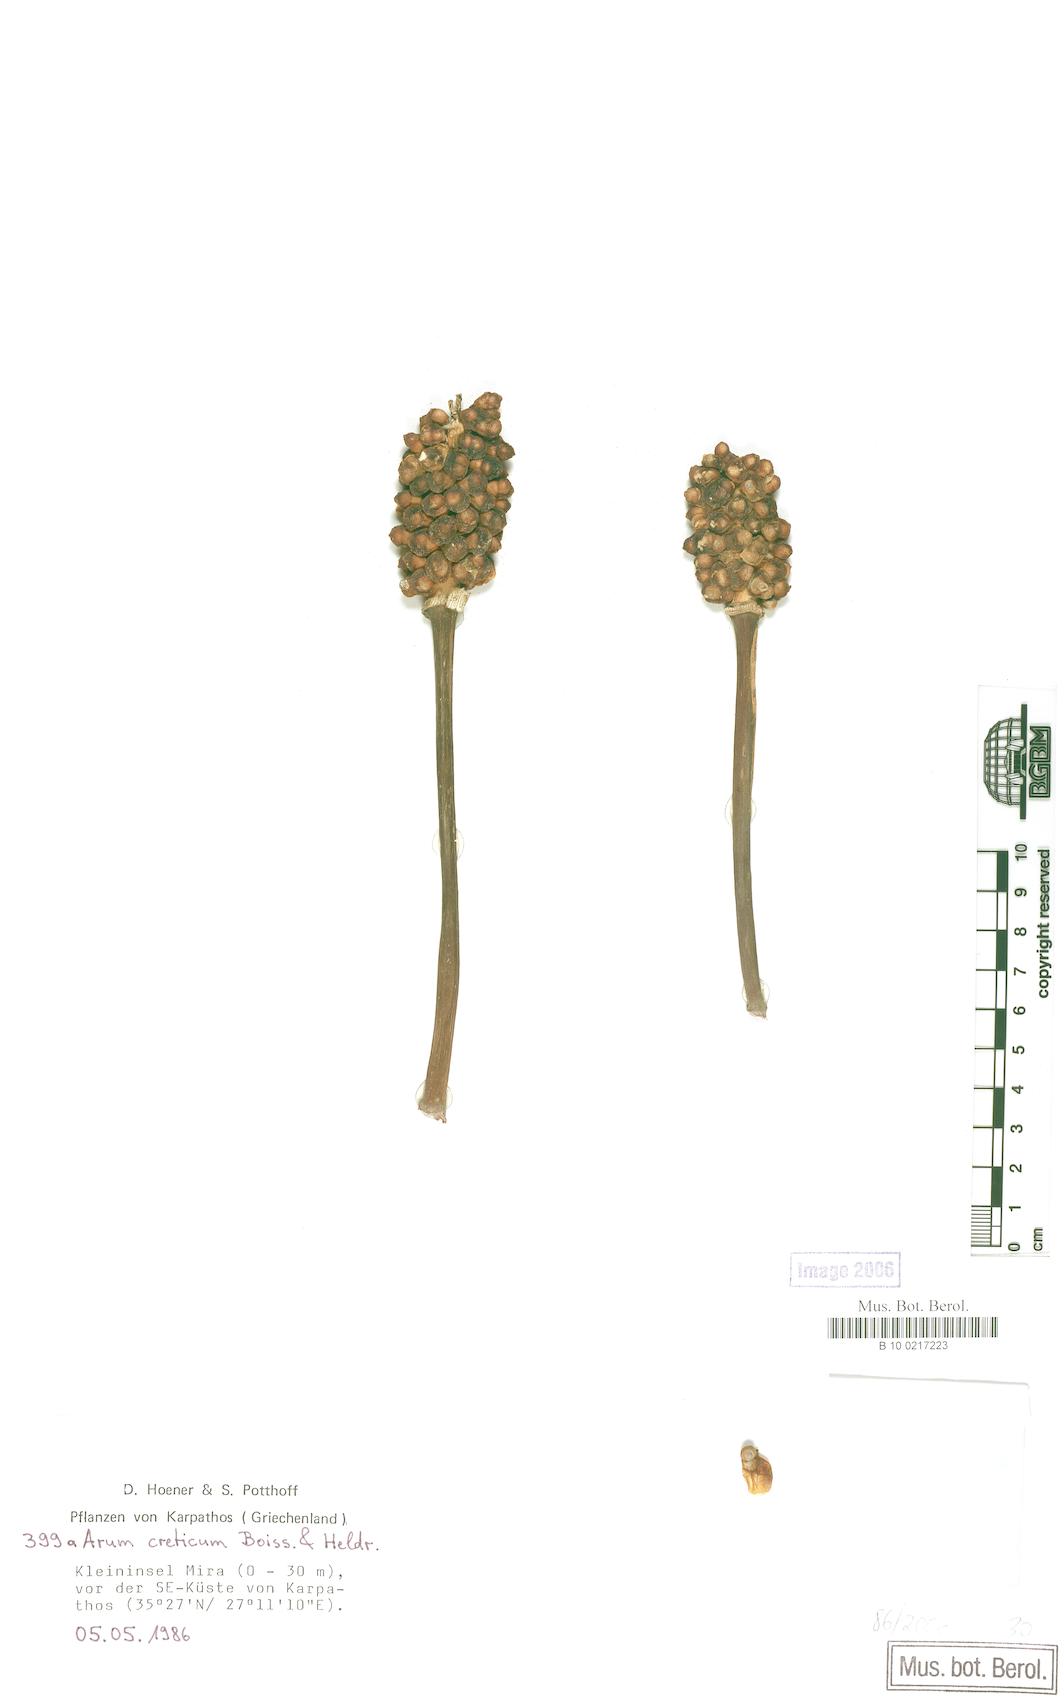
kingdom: Plantae
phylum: Tracheophyta
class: Liliopsida
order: Alismatales
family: Araceae
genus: Arum
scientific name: Arum creticum
